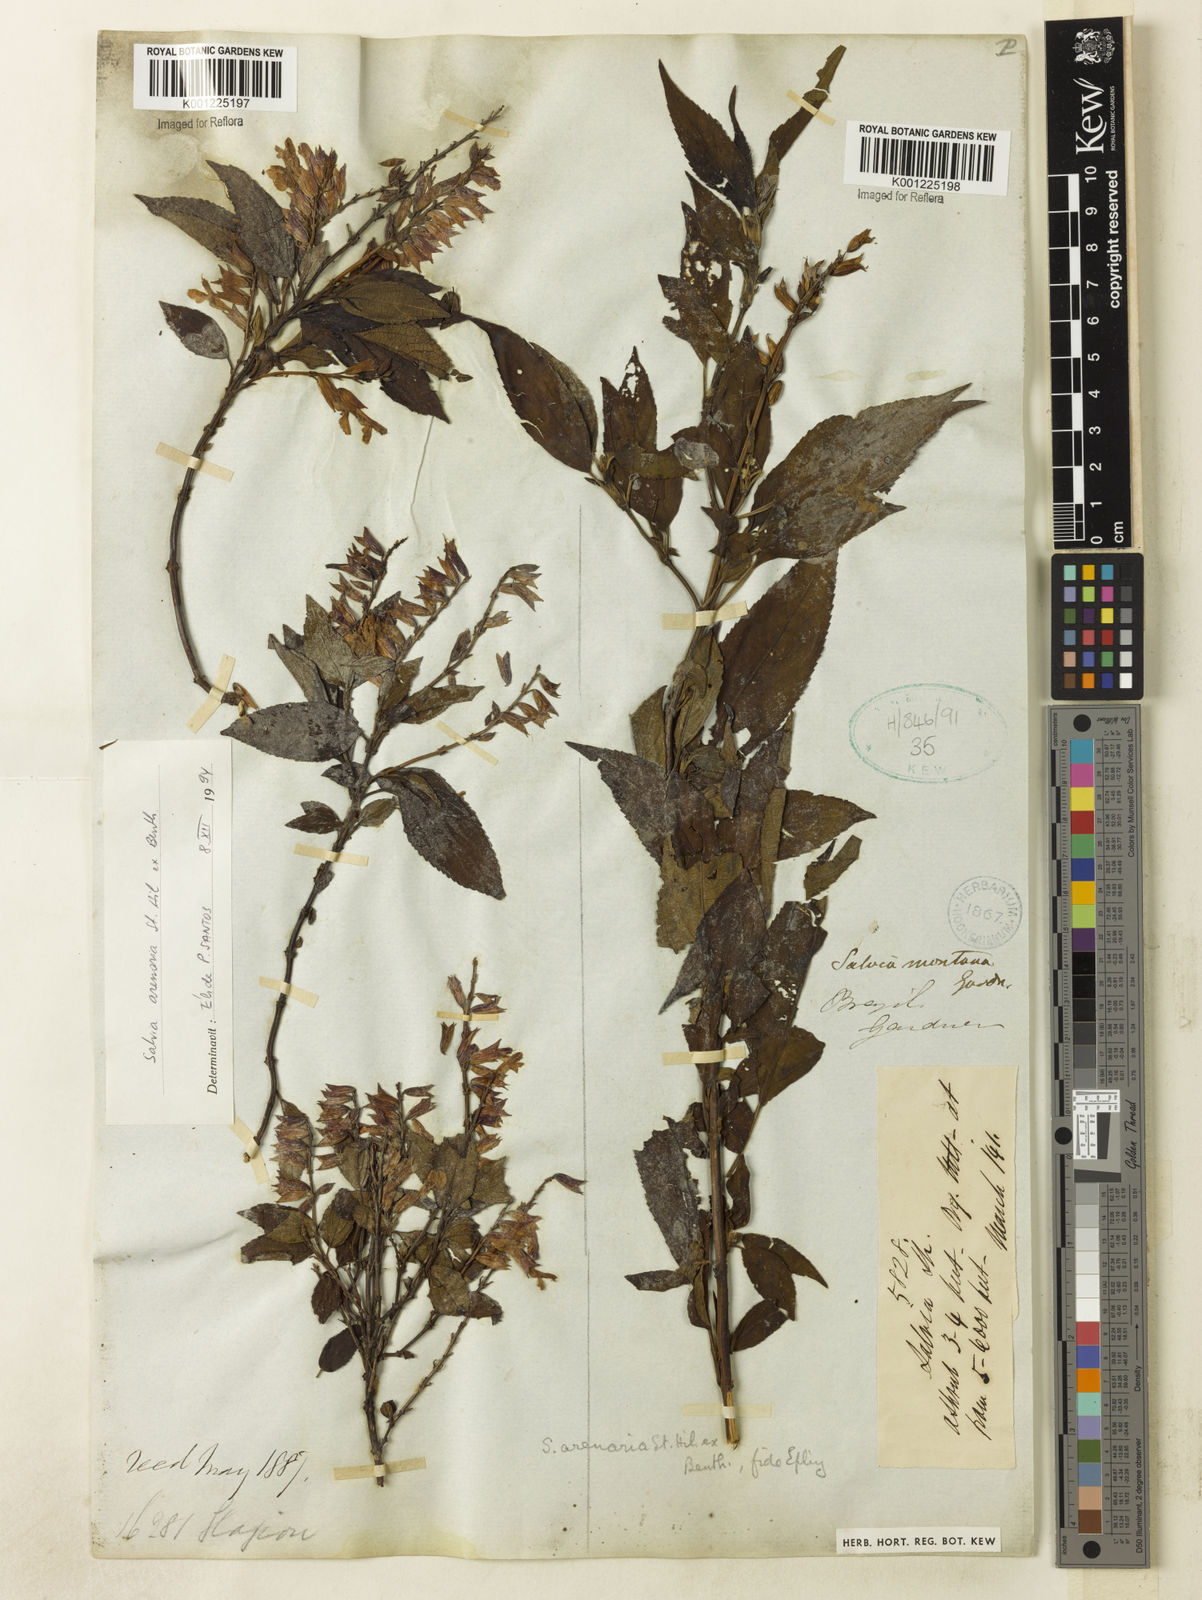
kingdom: Plantae
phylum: Tracheophyta
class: Magnoliopsida
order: Lamiales
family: Lamiaceae
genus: Salvia
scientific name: Salvia arenaria
